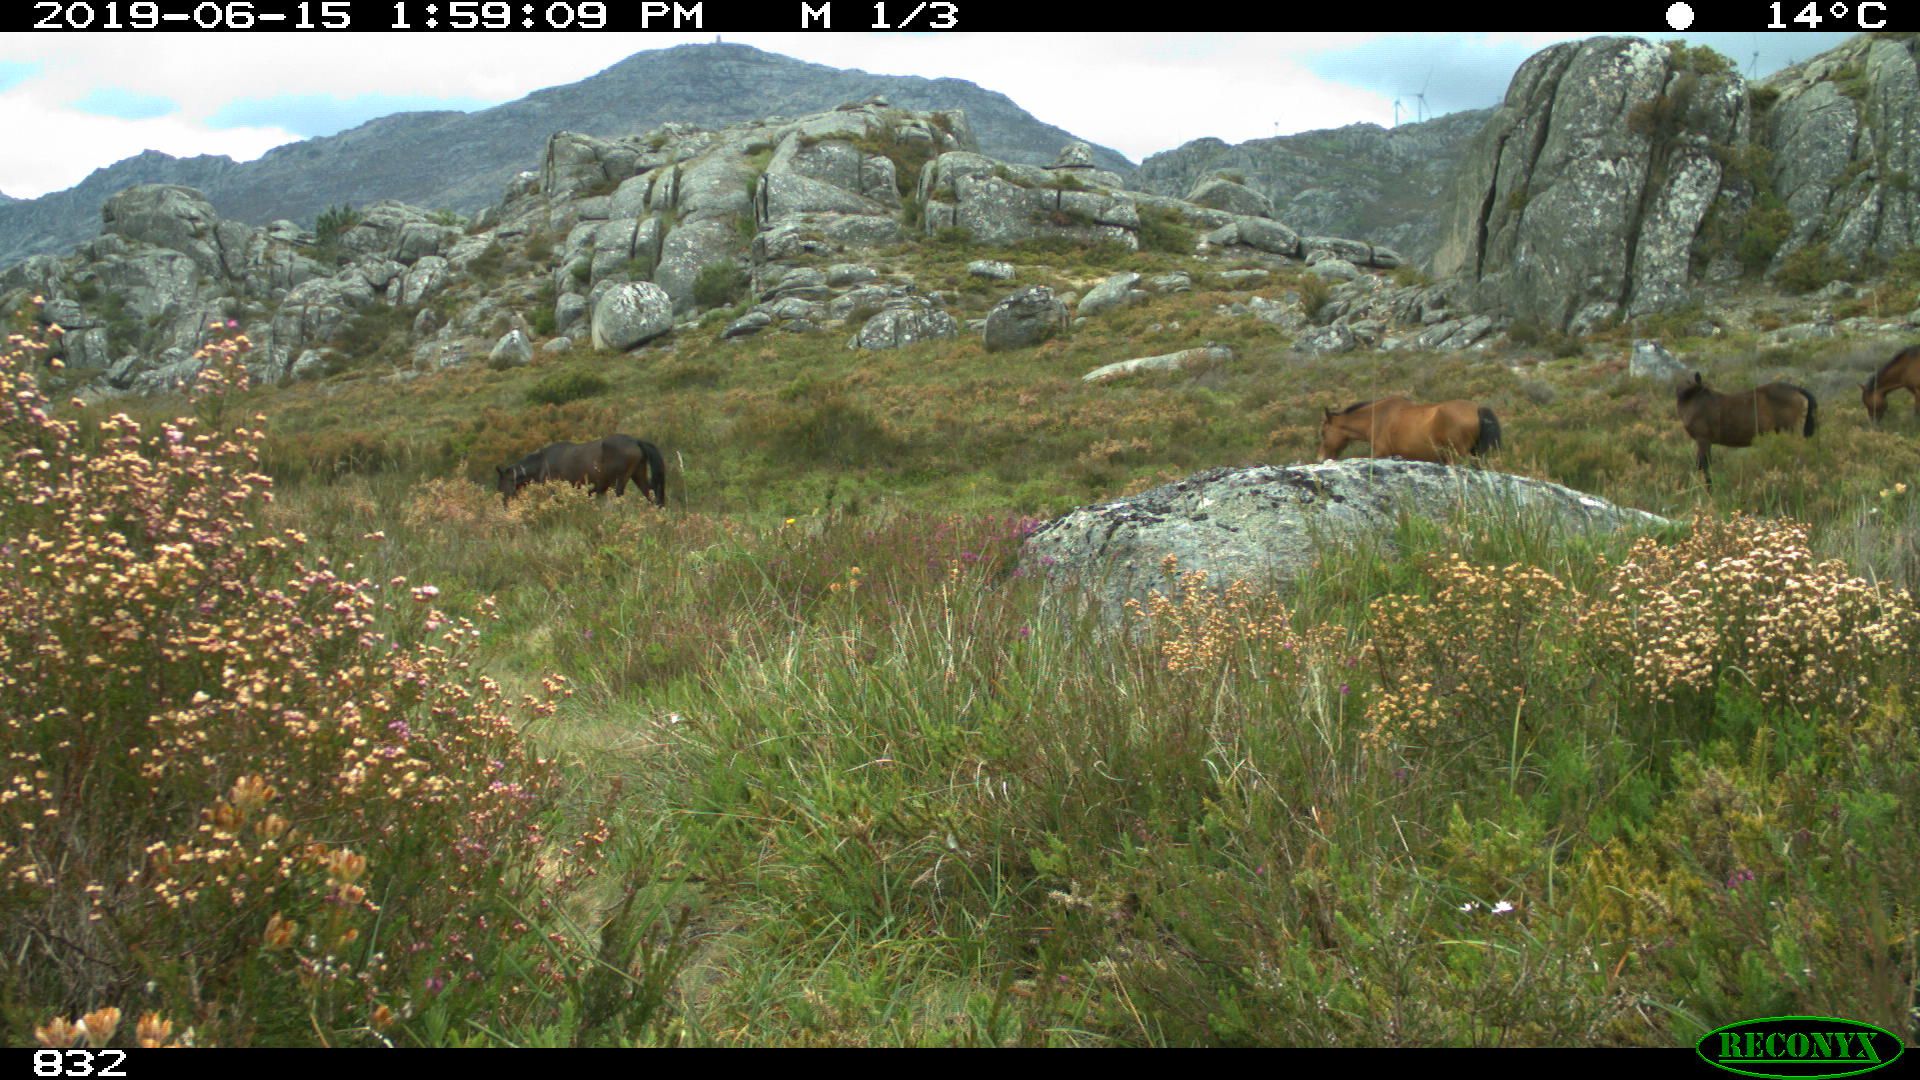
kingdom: Animalia
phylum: Chordata
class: Mammalia
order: Perissodactyla
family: Equidae
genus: Equus
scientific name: Equus caballus
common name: Horse
